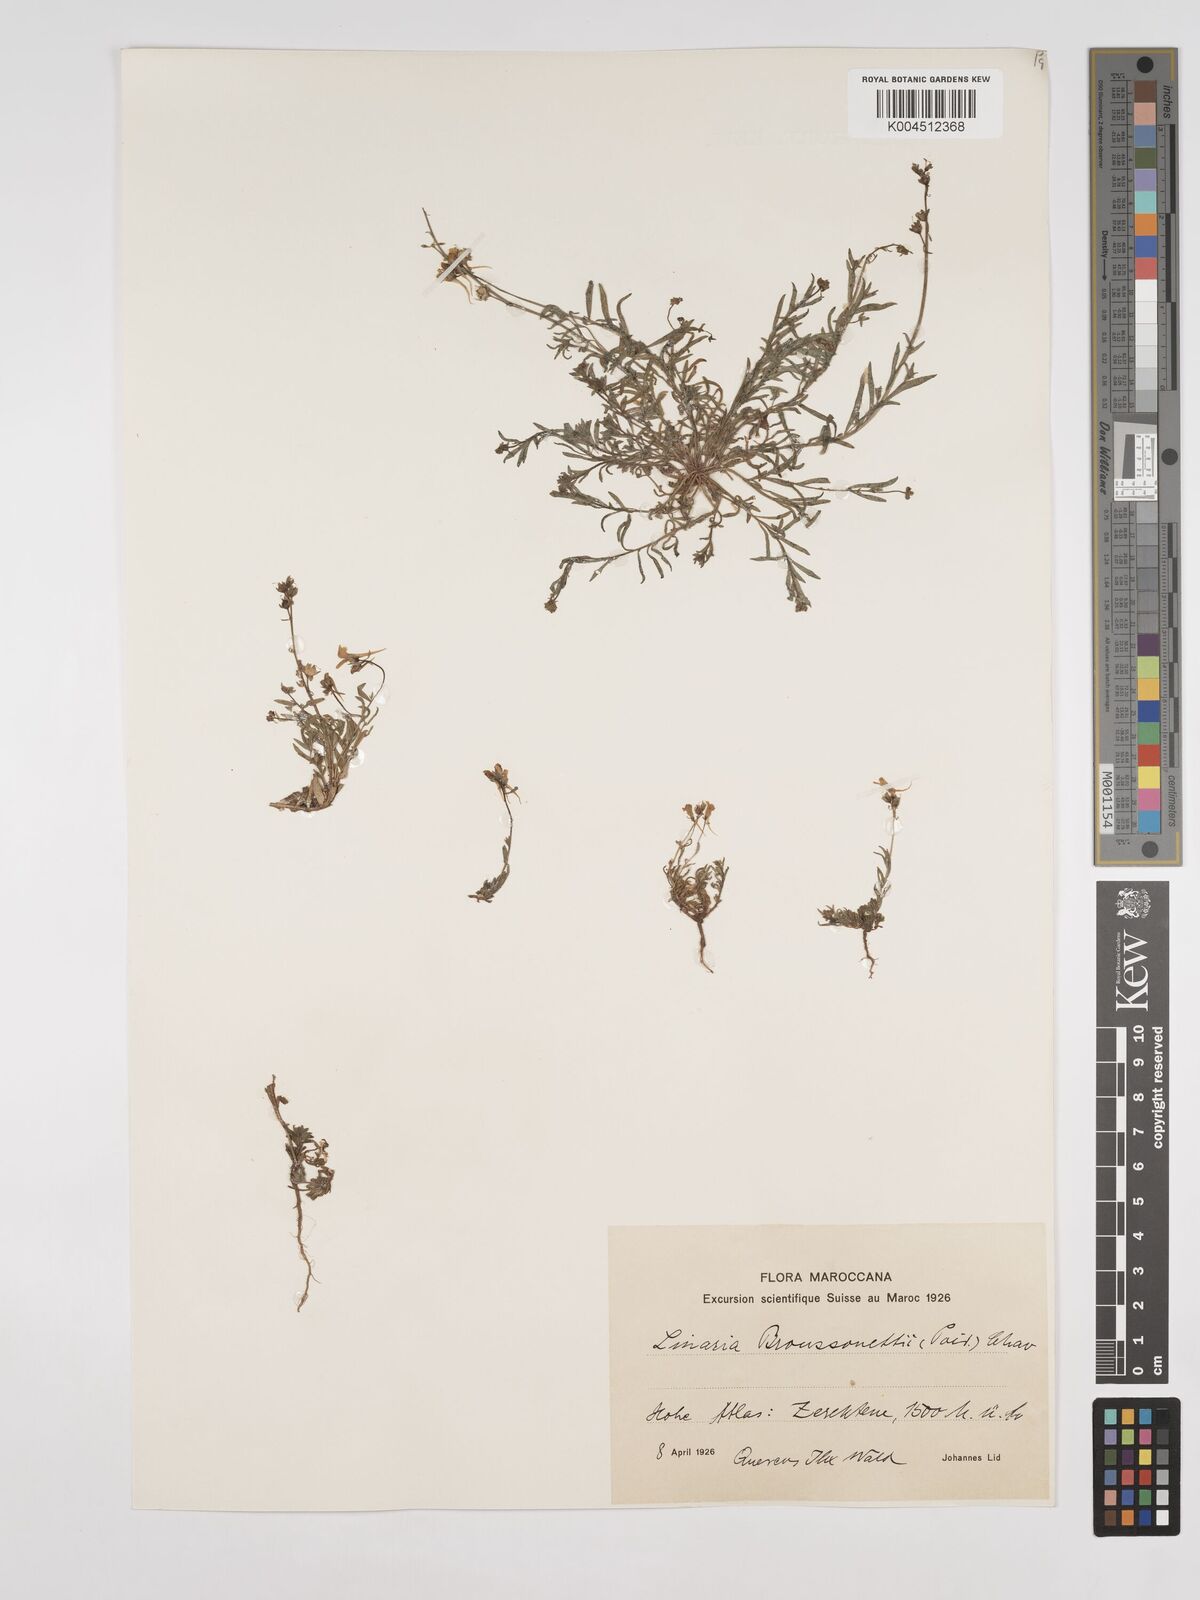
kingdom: Plantae
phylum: Tracheophyta
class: Magnoliopsida
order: Lamiales
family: Plantaginaceae
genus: Linaria
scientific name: Linaria
